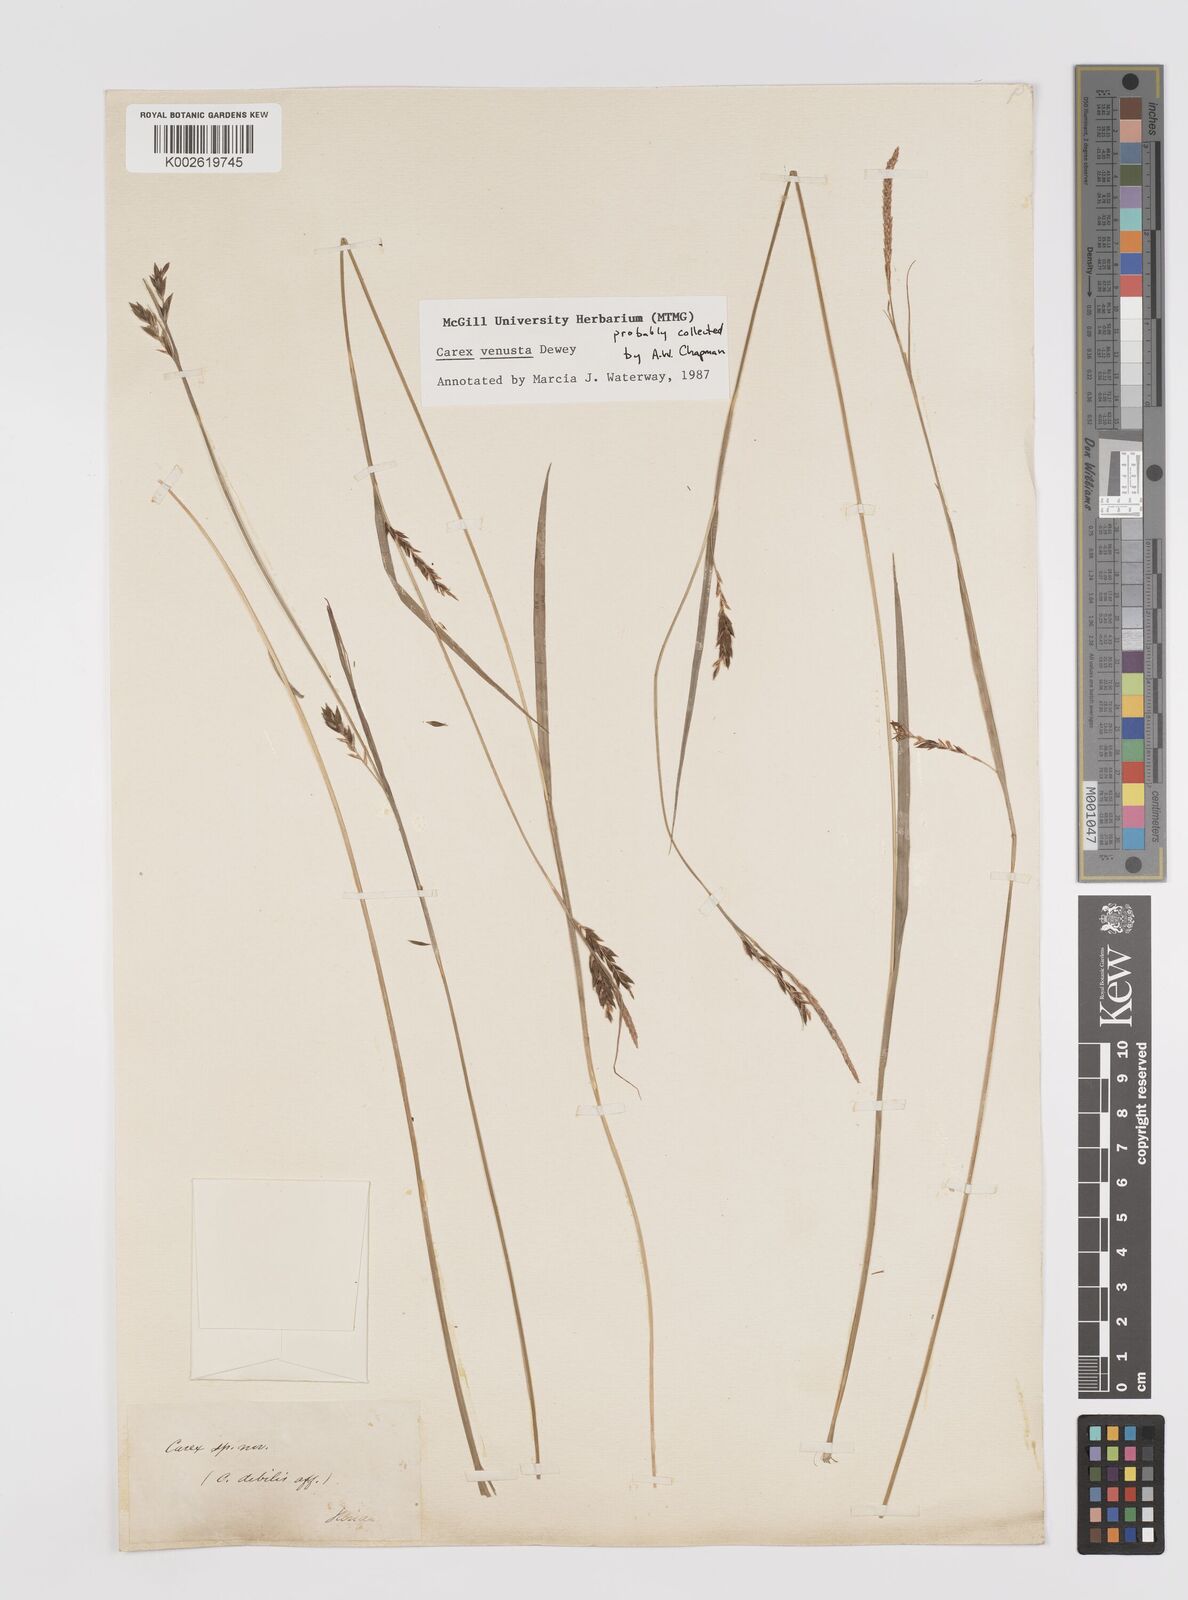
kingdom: Plantae
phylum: Tracheophyta
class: Liliopsida
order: Poales
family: Cyperaceae
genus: Carex
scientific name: Carex venusta
